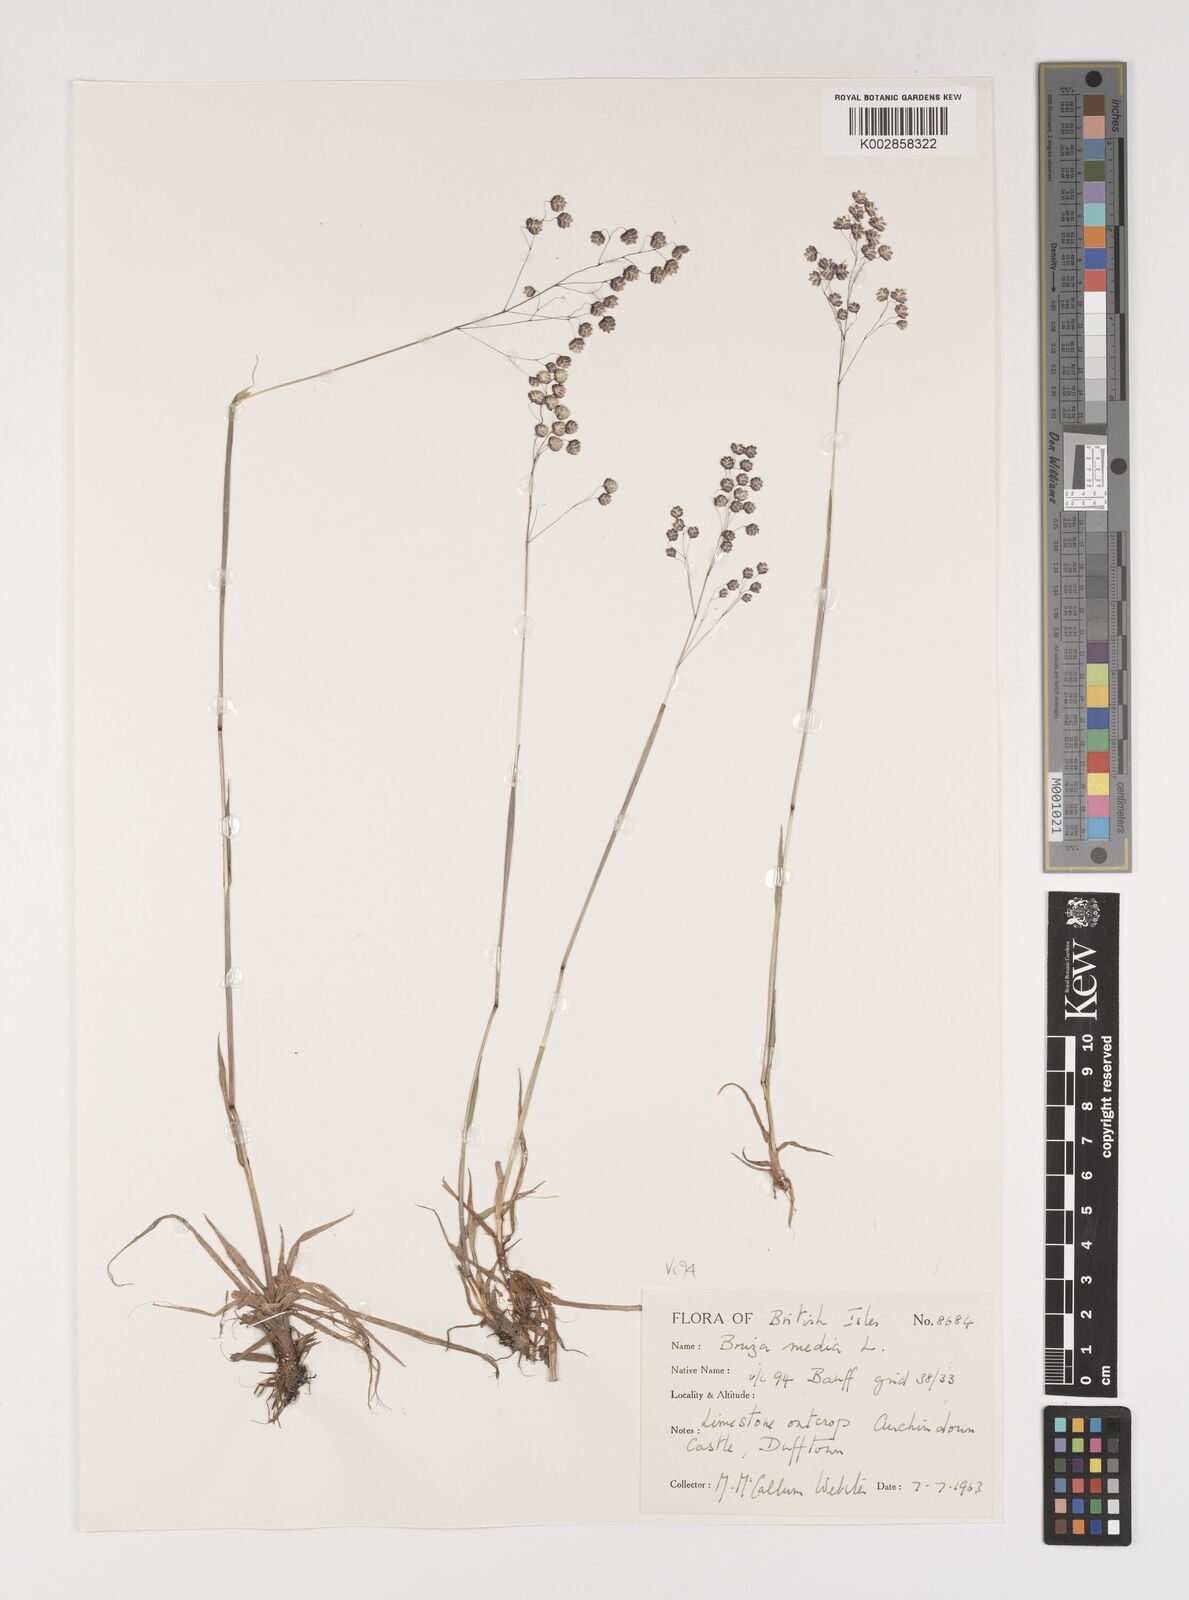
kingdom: Plantae
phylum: Tracheophyta
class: Liliopsida
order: Poales
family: Poaceae
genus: Briza
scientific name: Briza media
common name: Quaking grass
